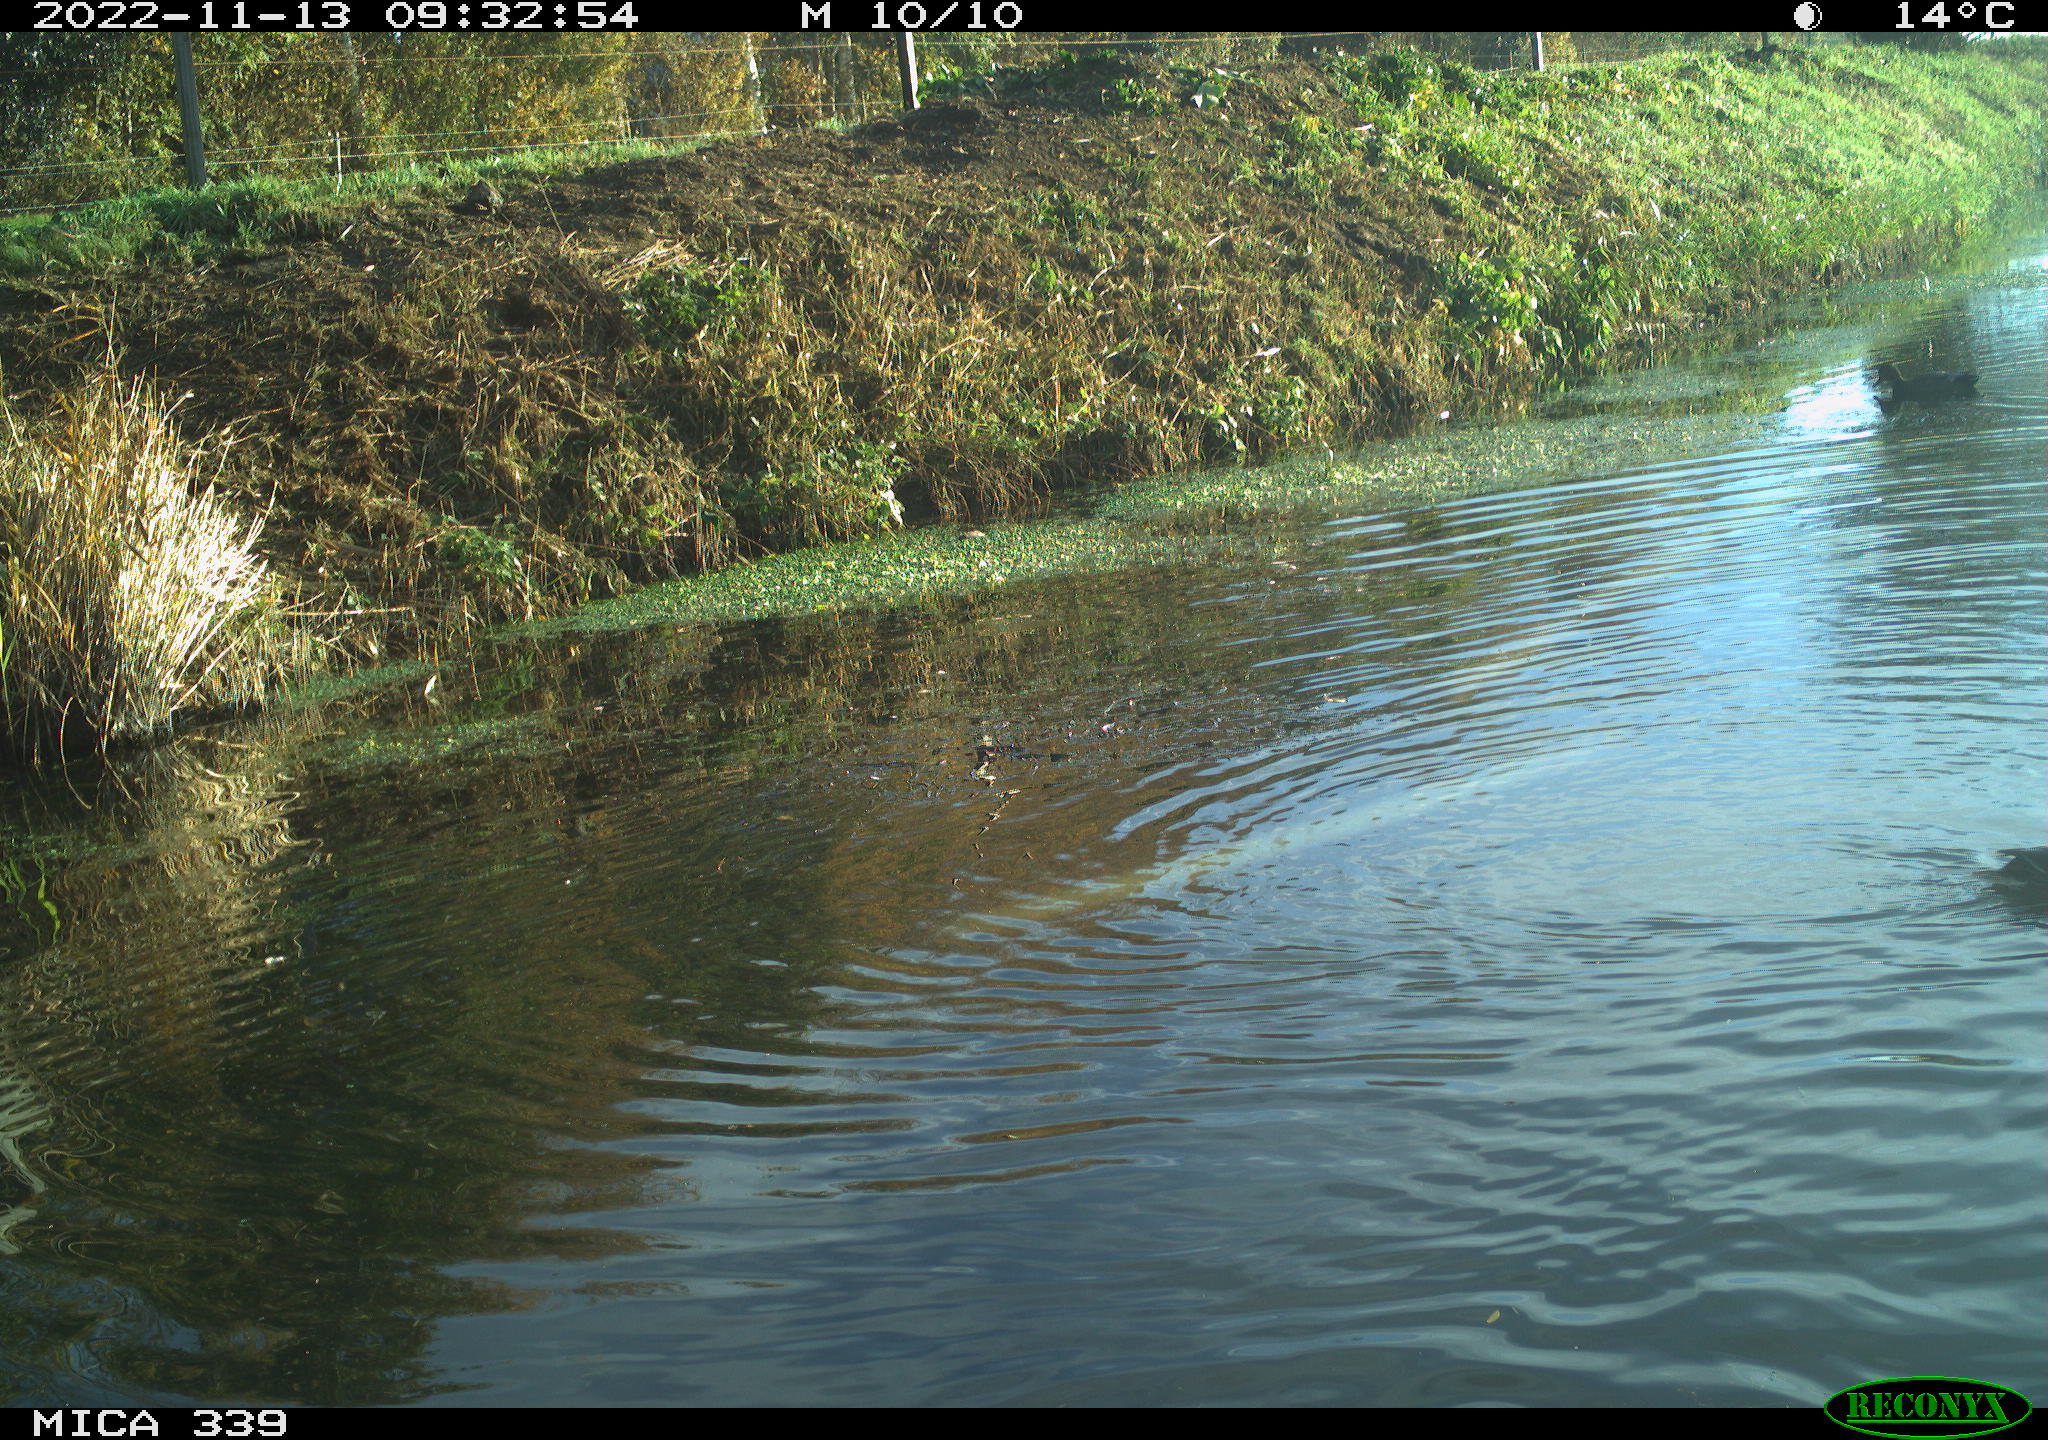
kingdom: Animalia
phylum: Chordata
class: Aves
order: Anseriformes
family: Anatidae
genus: Anas
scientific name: Anas platyrhynchos
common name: Mallard
